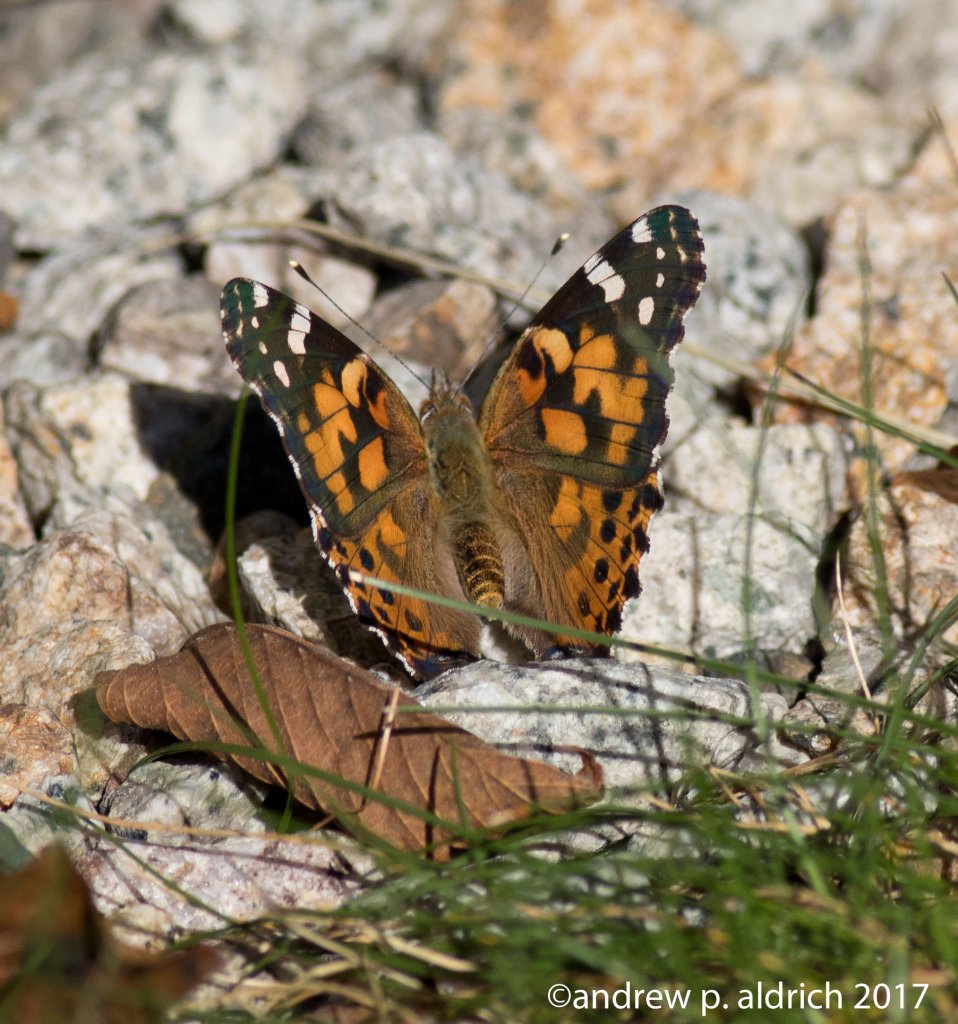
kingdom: Animalia
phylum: Arthropoda
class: Insecta
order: Lepidoptera
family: Nymphalidae
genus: Vanessa
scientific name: Vanessa cardui
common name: Painted Lady
